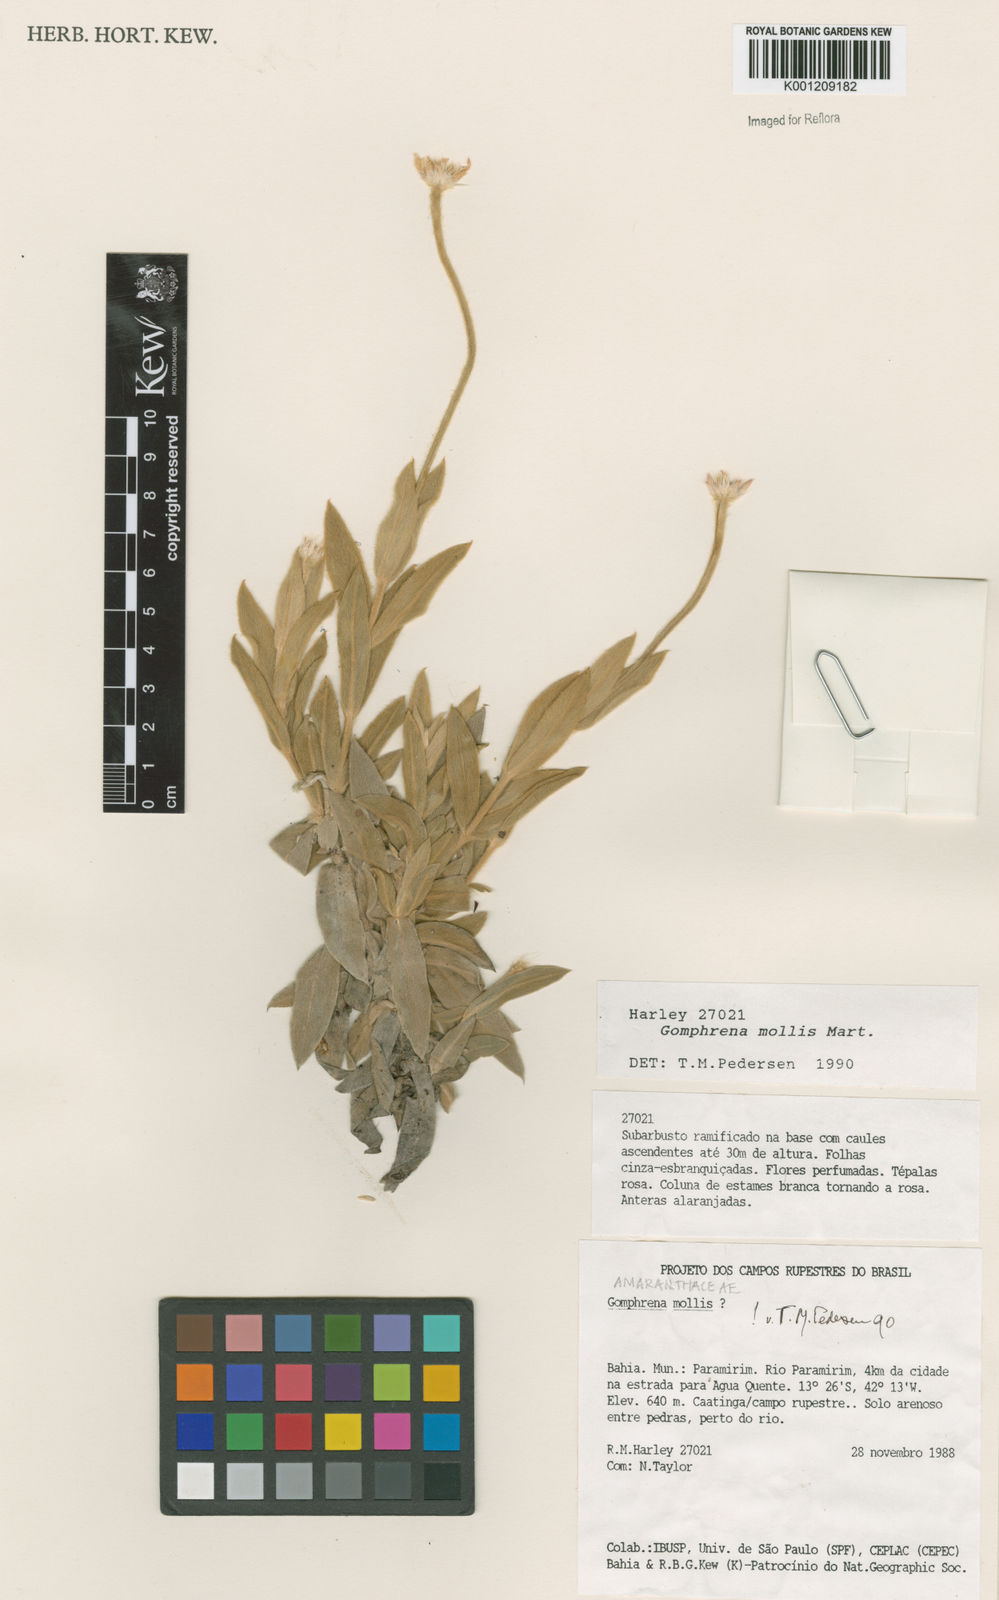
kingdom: Plantae
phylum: Tracheophyta
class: Magnoliopsida
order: Caryophyllales
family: Amaranthaceae
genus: Gomphrena
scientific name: Gomphrena mollis
